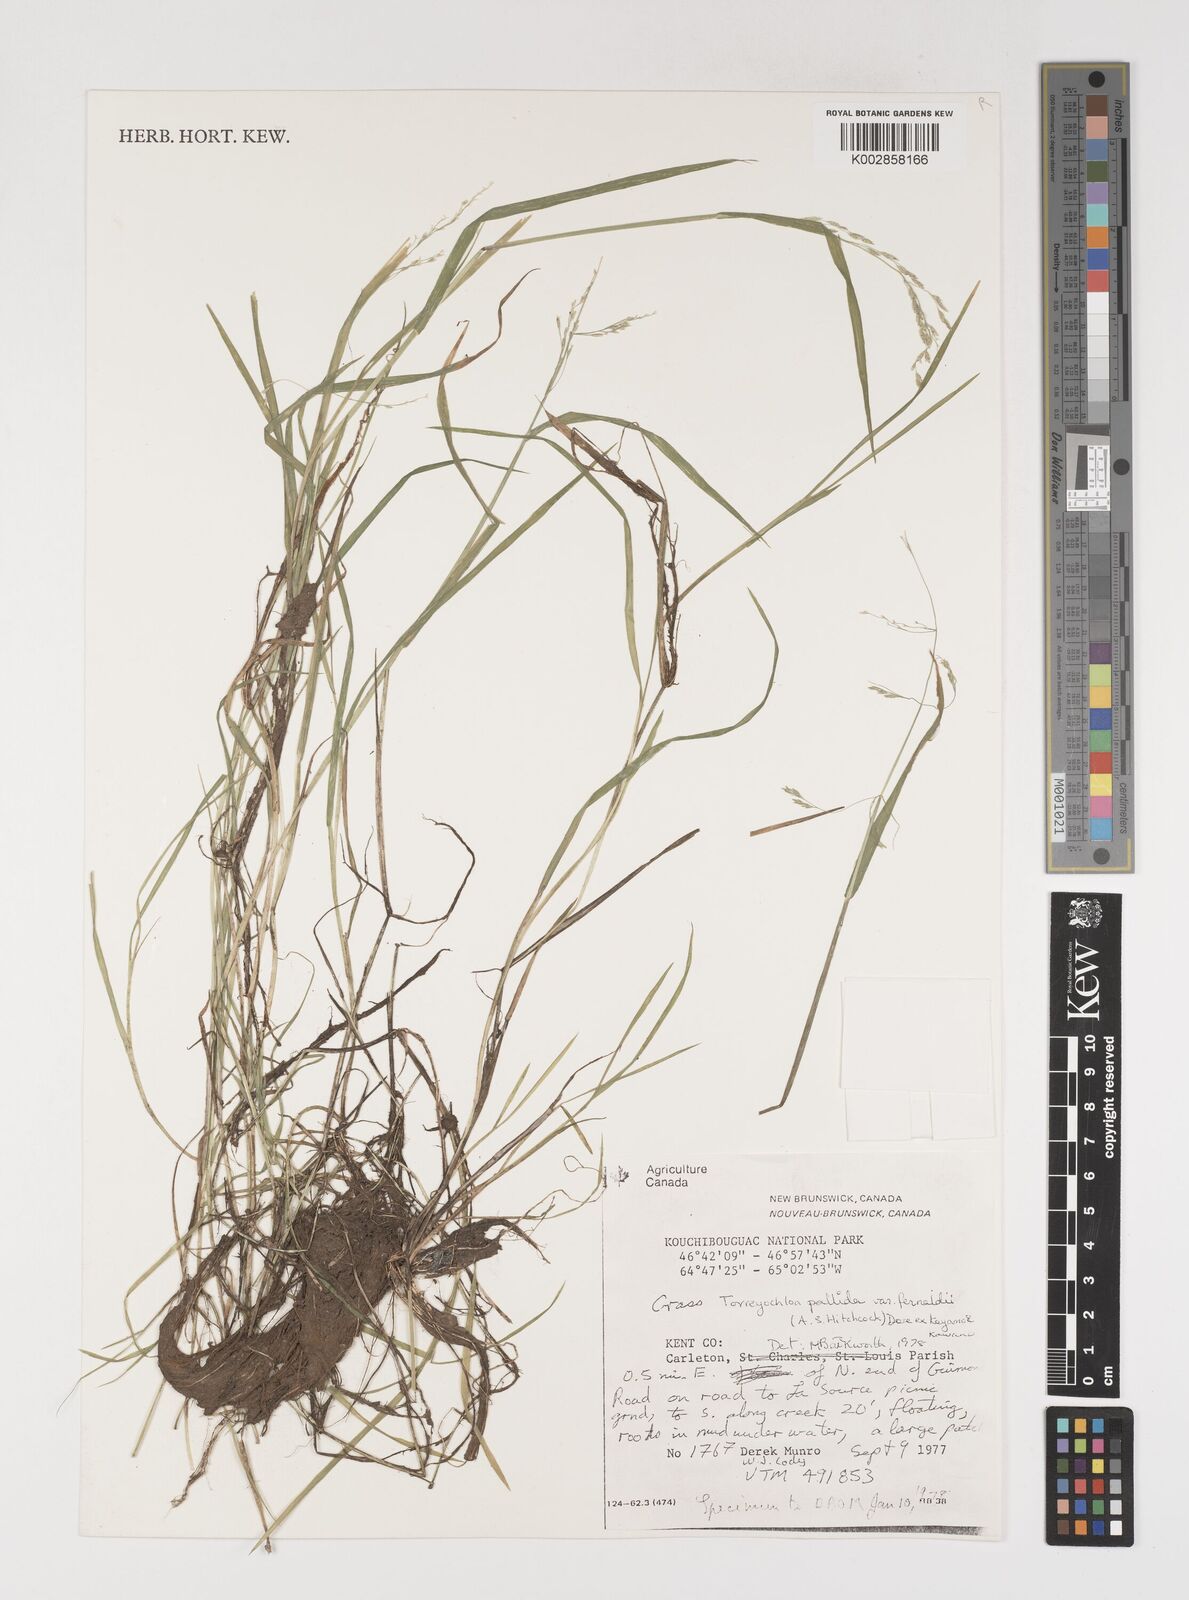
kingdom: Plantae
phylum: Tracheophyta
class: Liliopsida
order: Poales
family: Poaceae
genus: Torreyochloa
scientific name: Torreyochloa pallida
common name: Pale false mannagrass
